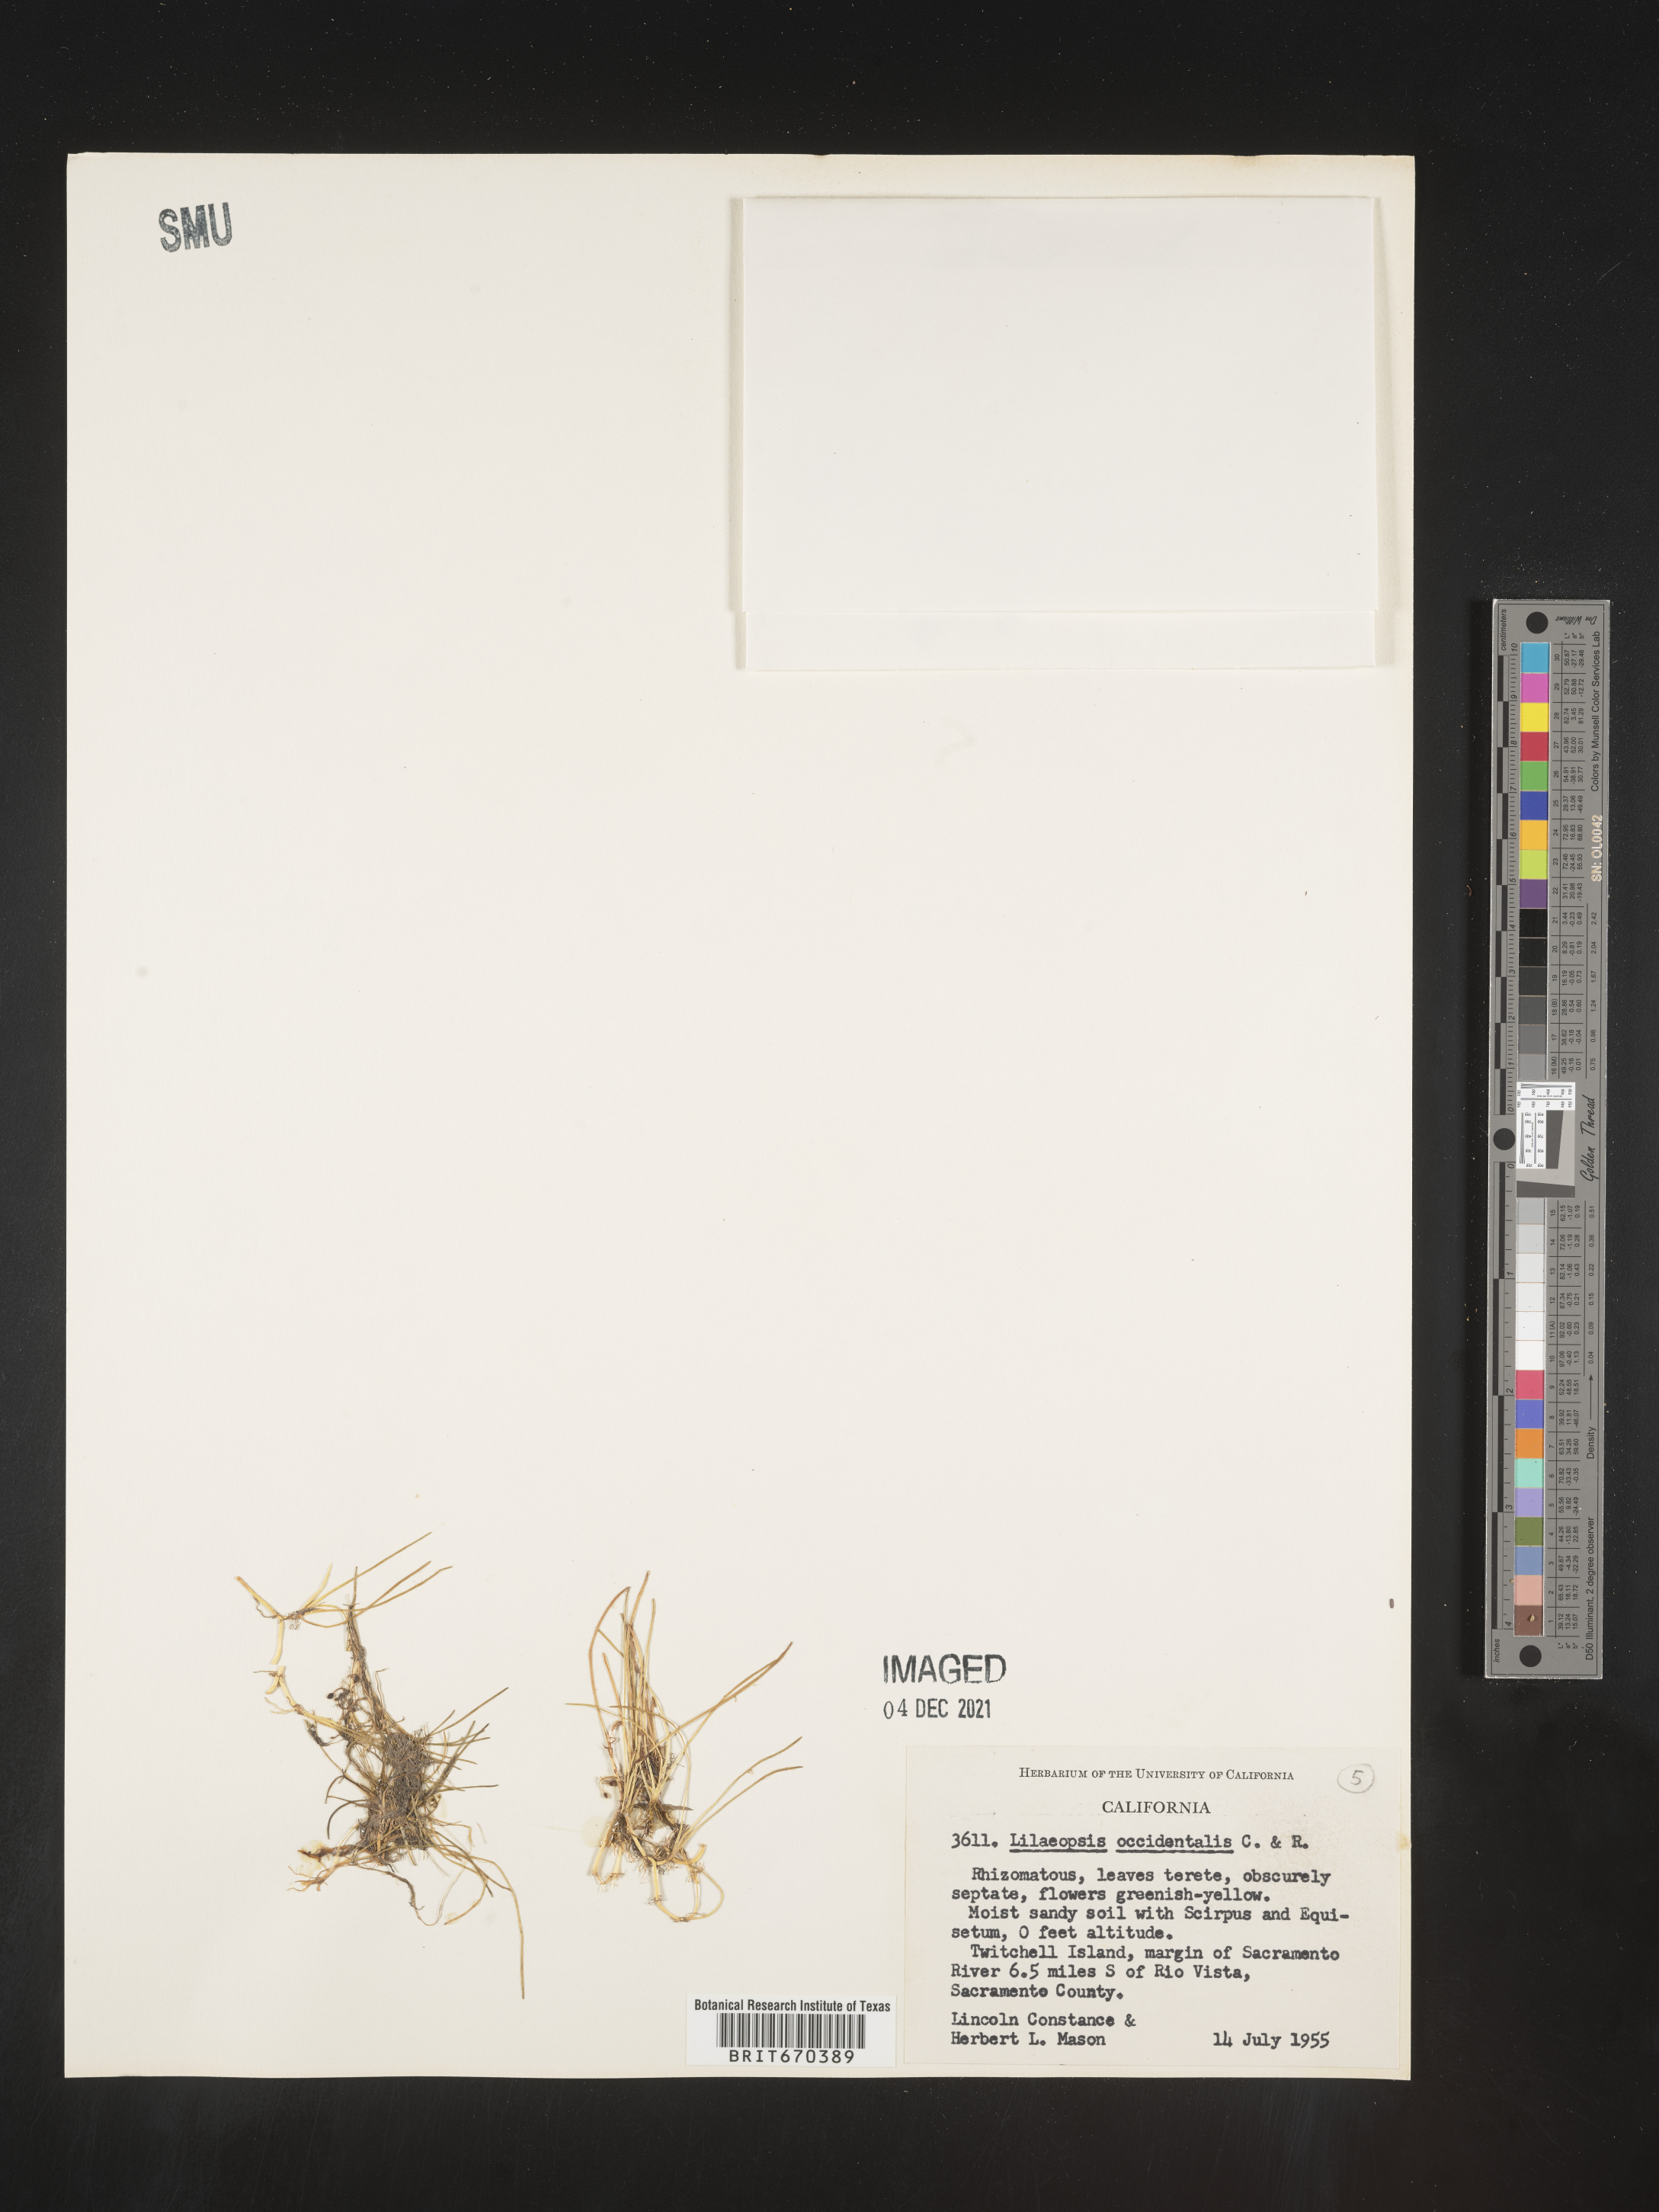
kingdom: Plantae
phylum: Tracheophyta
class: Magnoliopsida
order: Apiales
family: Apiaceae
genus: Lilaeopsis
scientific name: Lilaeopsis
